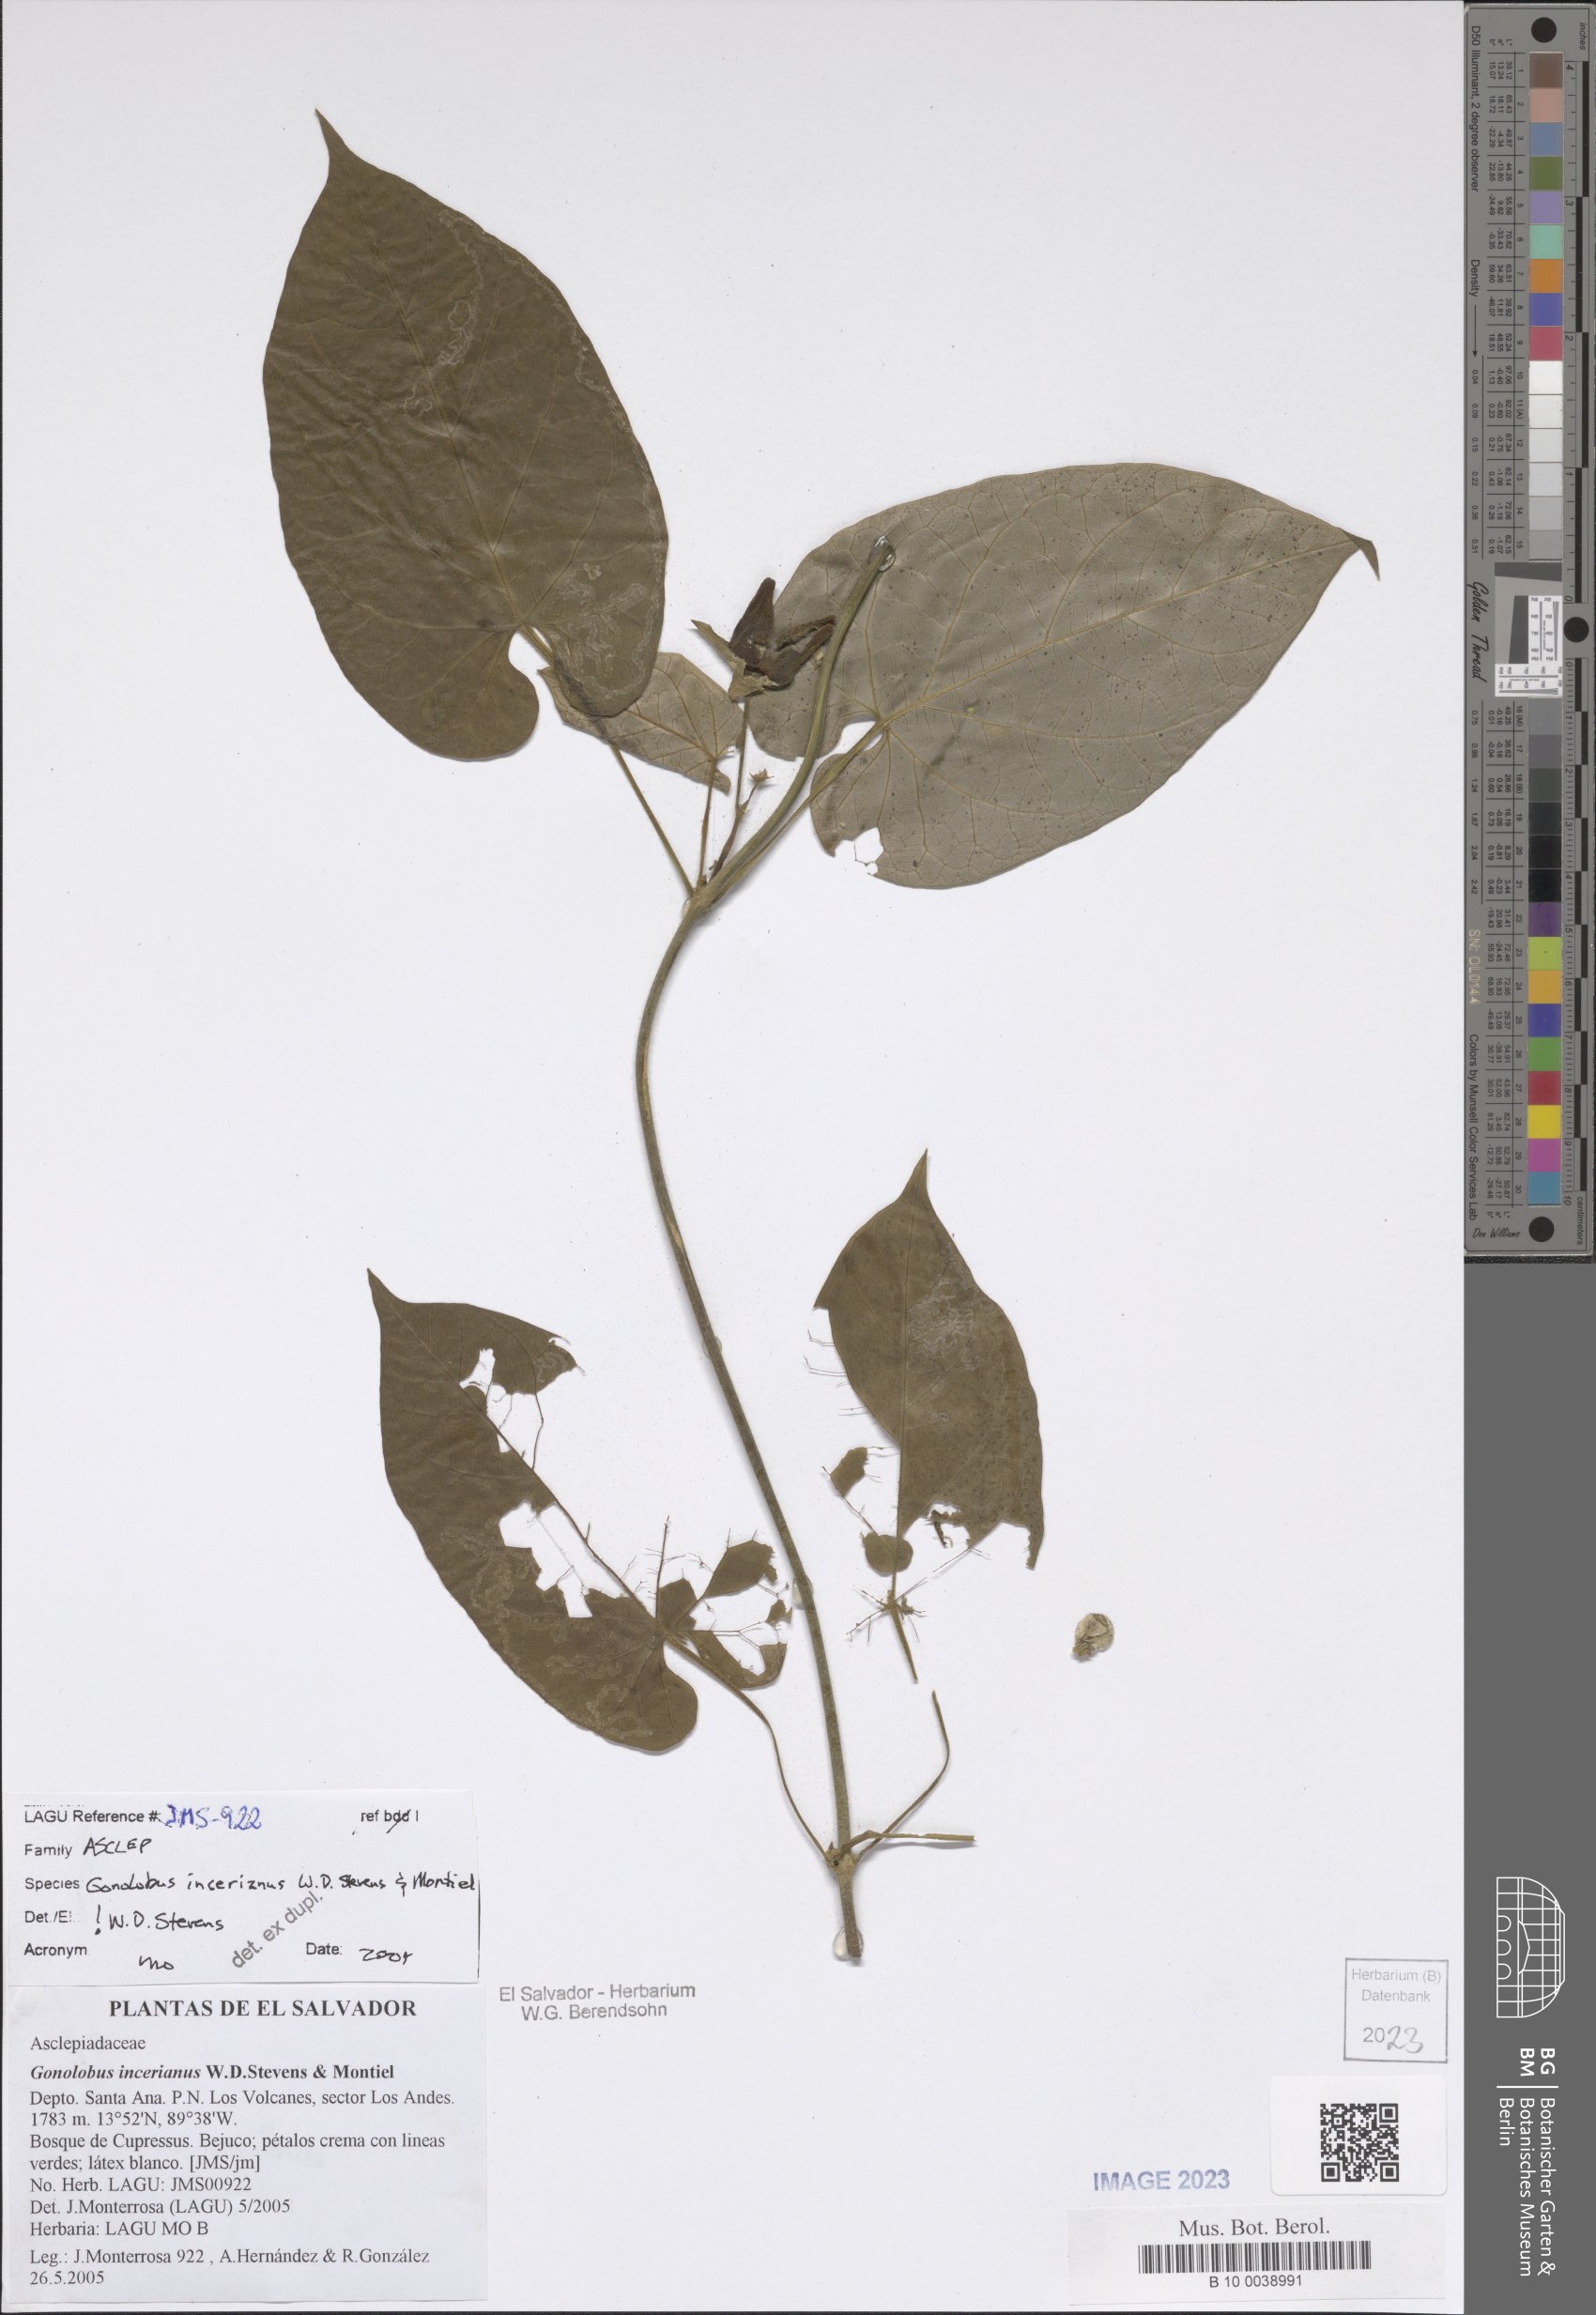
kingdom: Plantae
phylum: Tracheophyta
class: Magnoliopsida
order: Gentianales
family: Apocynaceae
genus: Gonolobus
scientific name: Gonolobus incerianus
